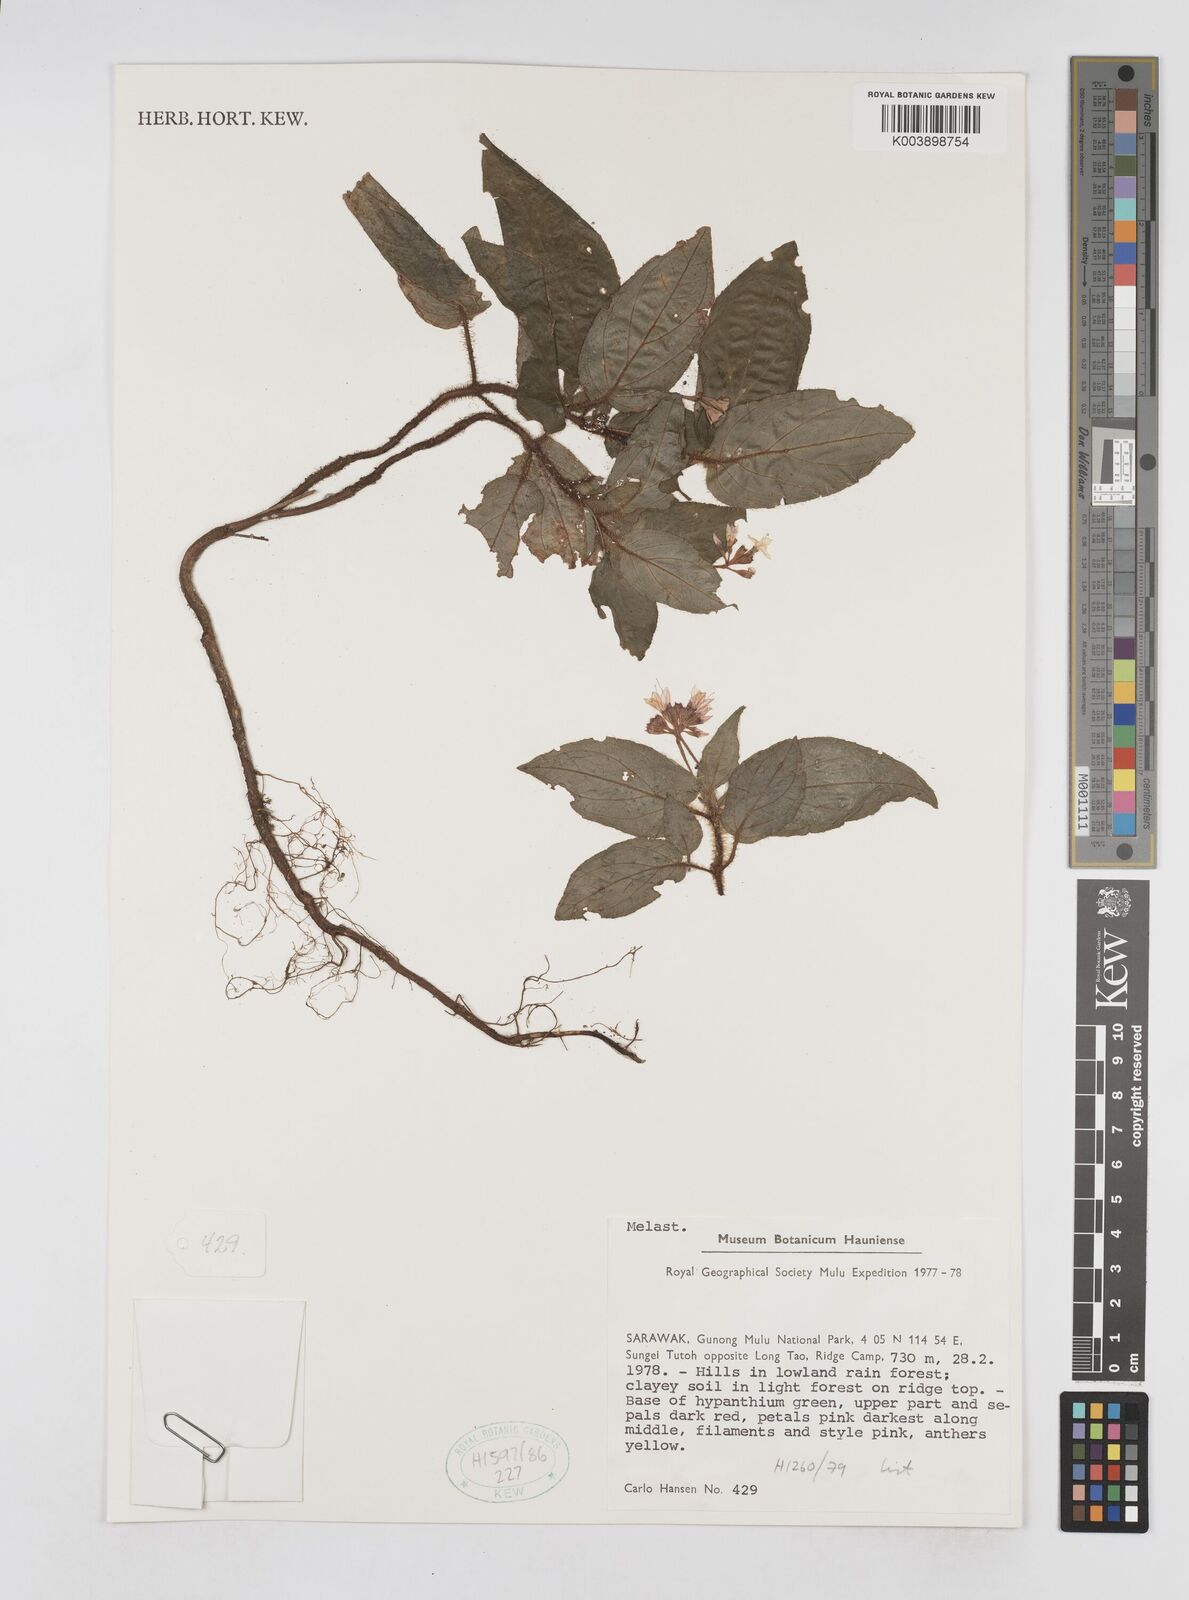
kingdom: Plantae
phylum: Tracheophyta
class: Magnoliopsida
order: Myrtales
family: Melastomataceae
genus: Sonerila
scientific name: Sonerila
